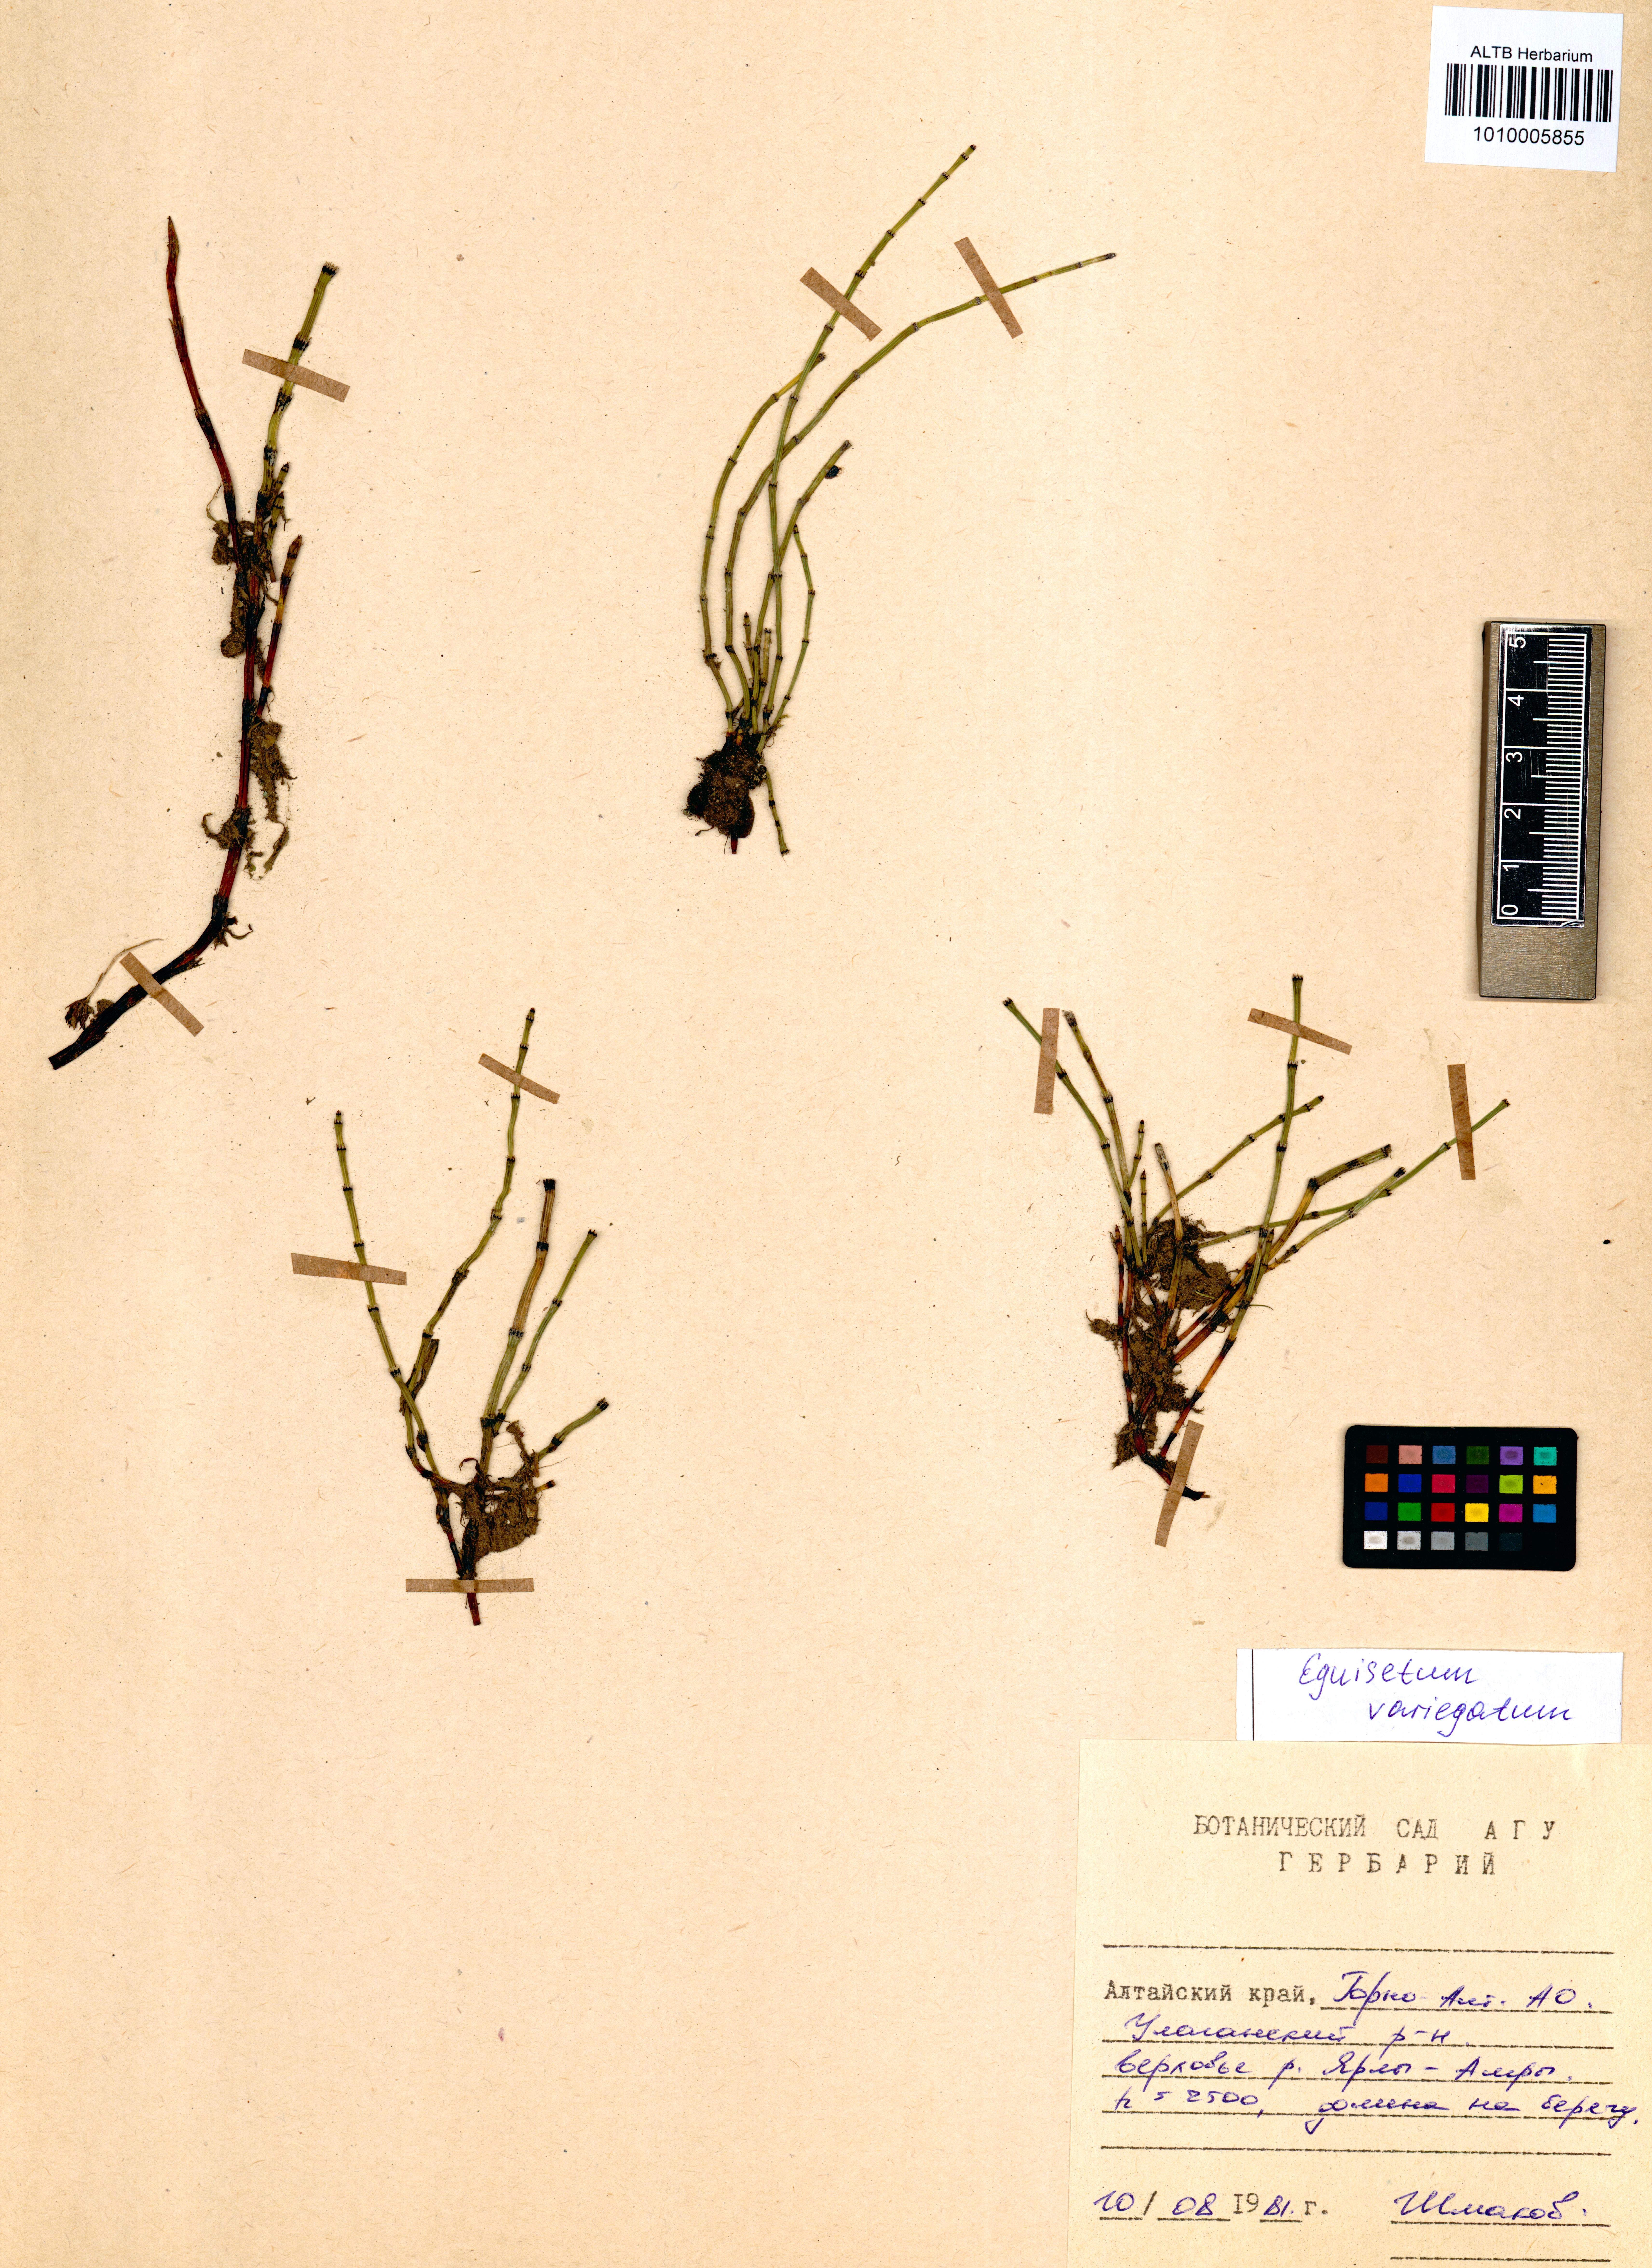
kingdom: Plantae
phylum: Tracheophyta
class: Polypodiopsida
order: Equisetales
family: Equisetaceae
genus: Equisetum
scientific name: Equisetum variegatum
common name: Variegated horsetail
